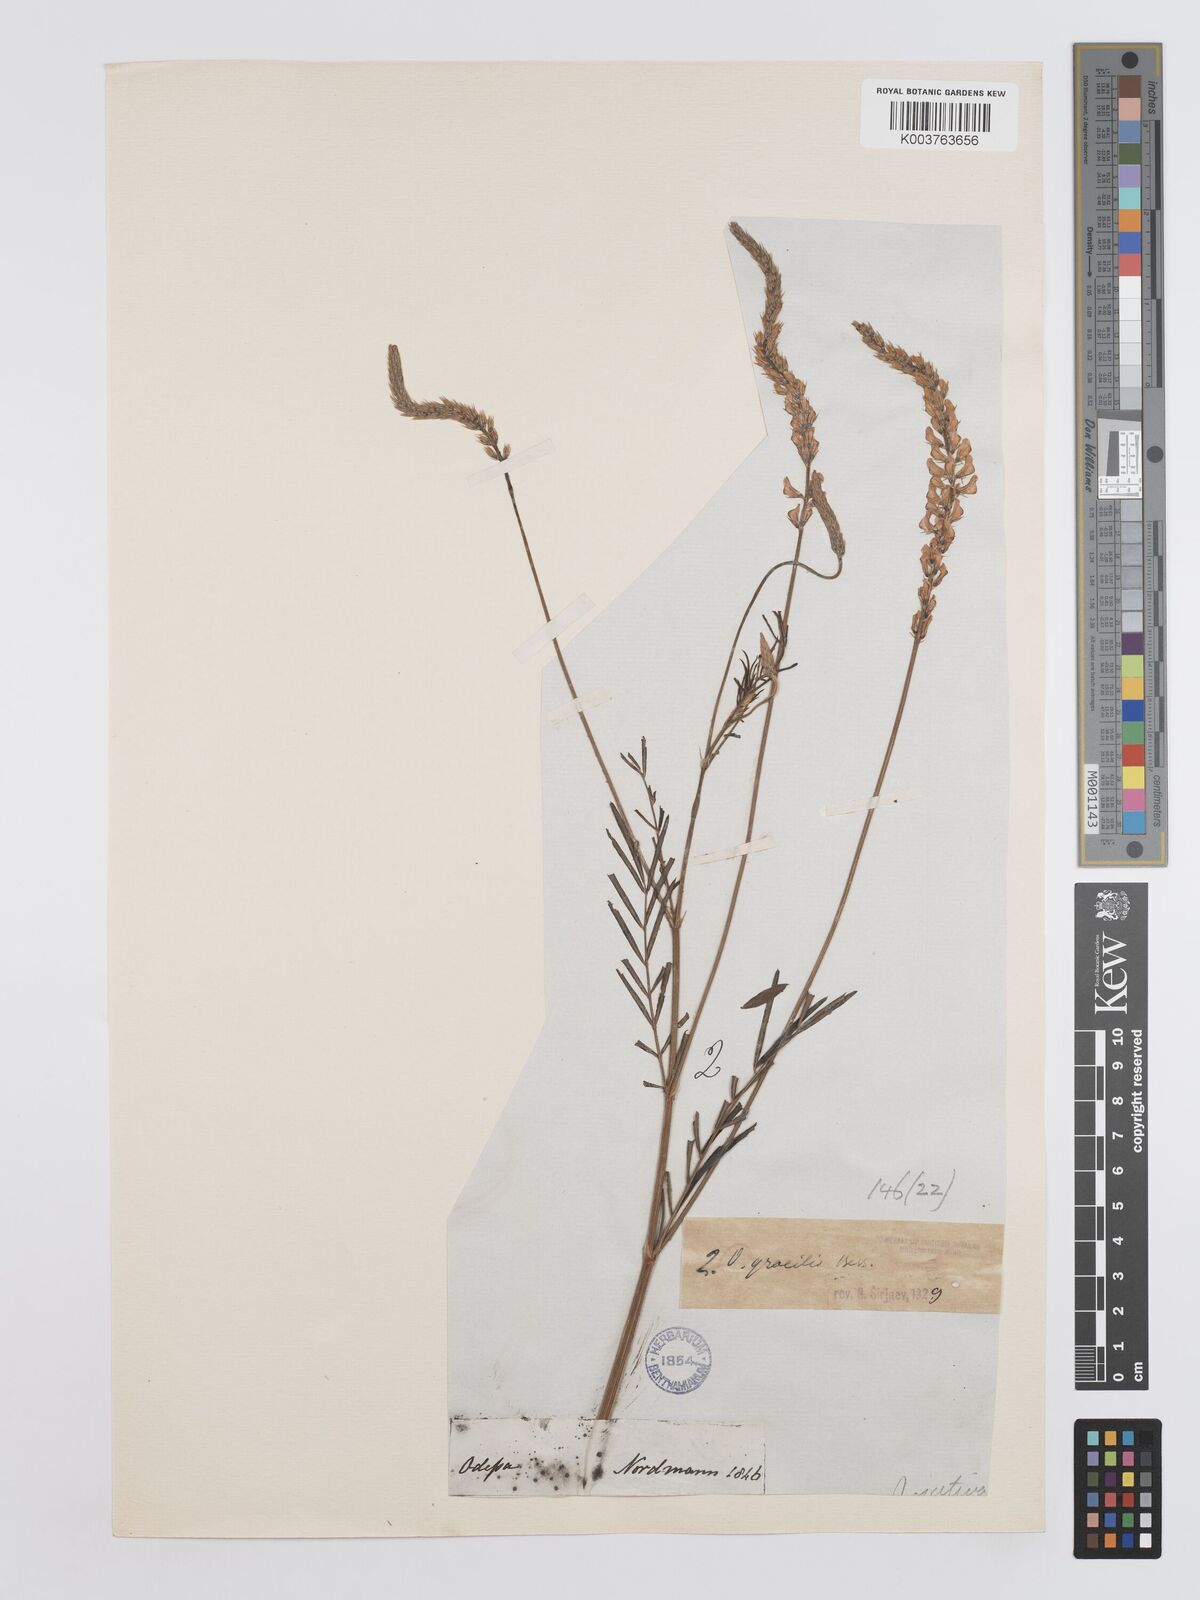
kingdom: Plantae
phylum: Tracheophyta
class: Magnoliopsida
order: Fabales
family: Fabaceae
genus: Onobrychis
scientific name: Onobrychis gracilis
